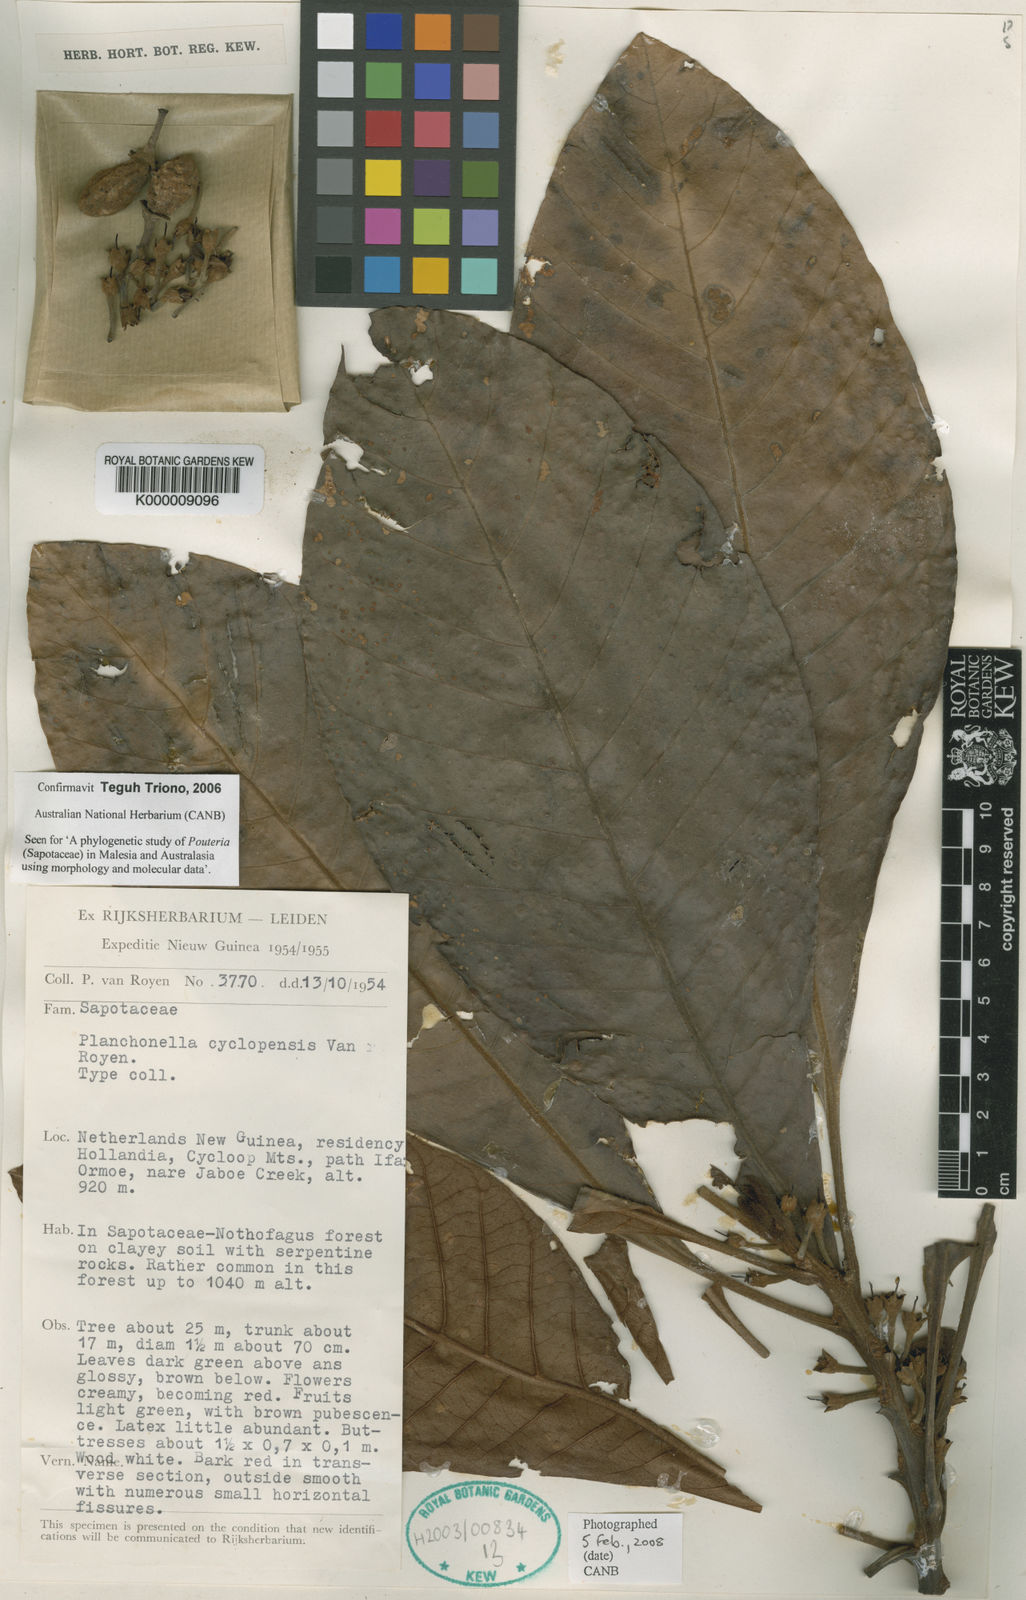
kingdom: Plantae
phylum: Tracheophyta
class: Magnoliopsida
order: Ericales
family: Sapotaceae
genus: Planchonella
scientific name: Planchonella cyclopensis
